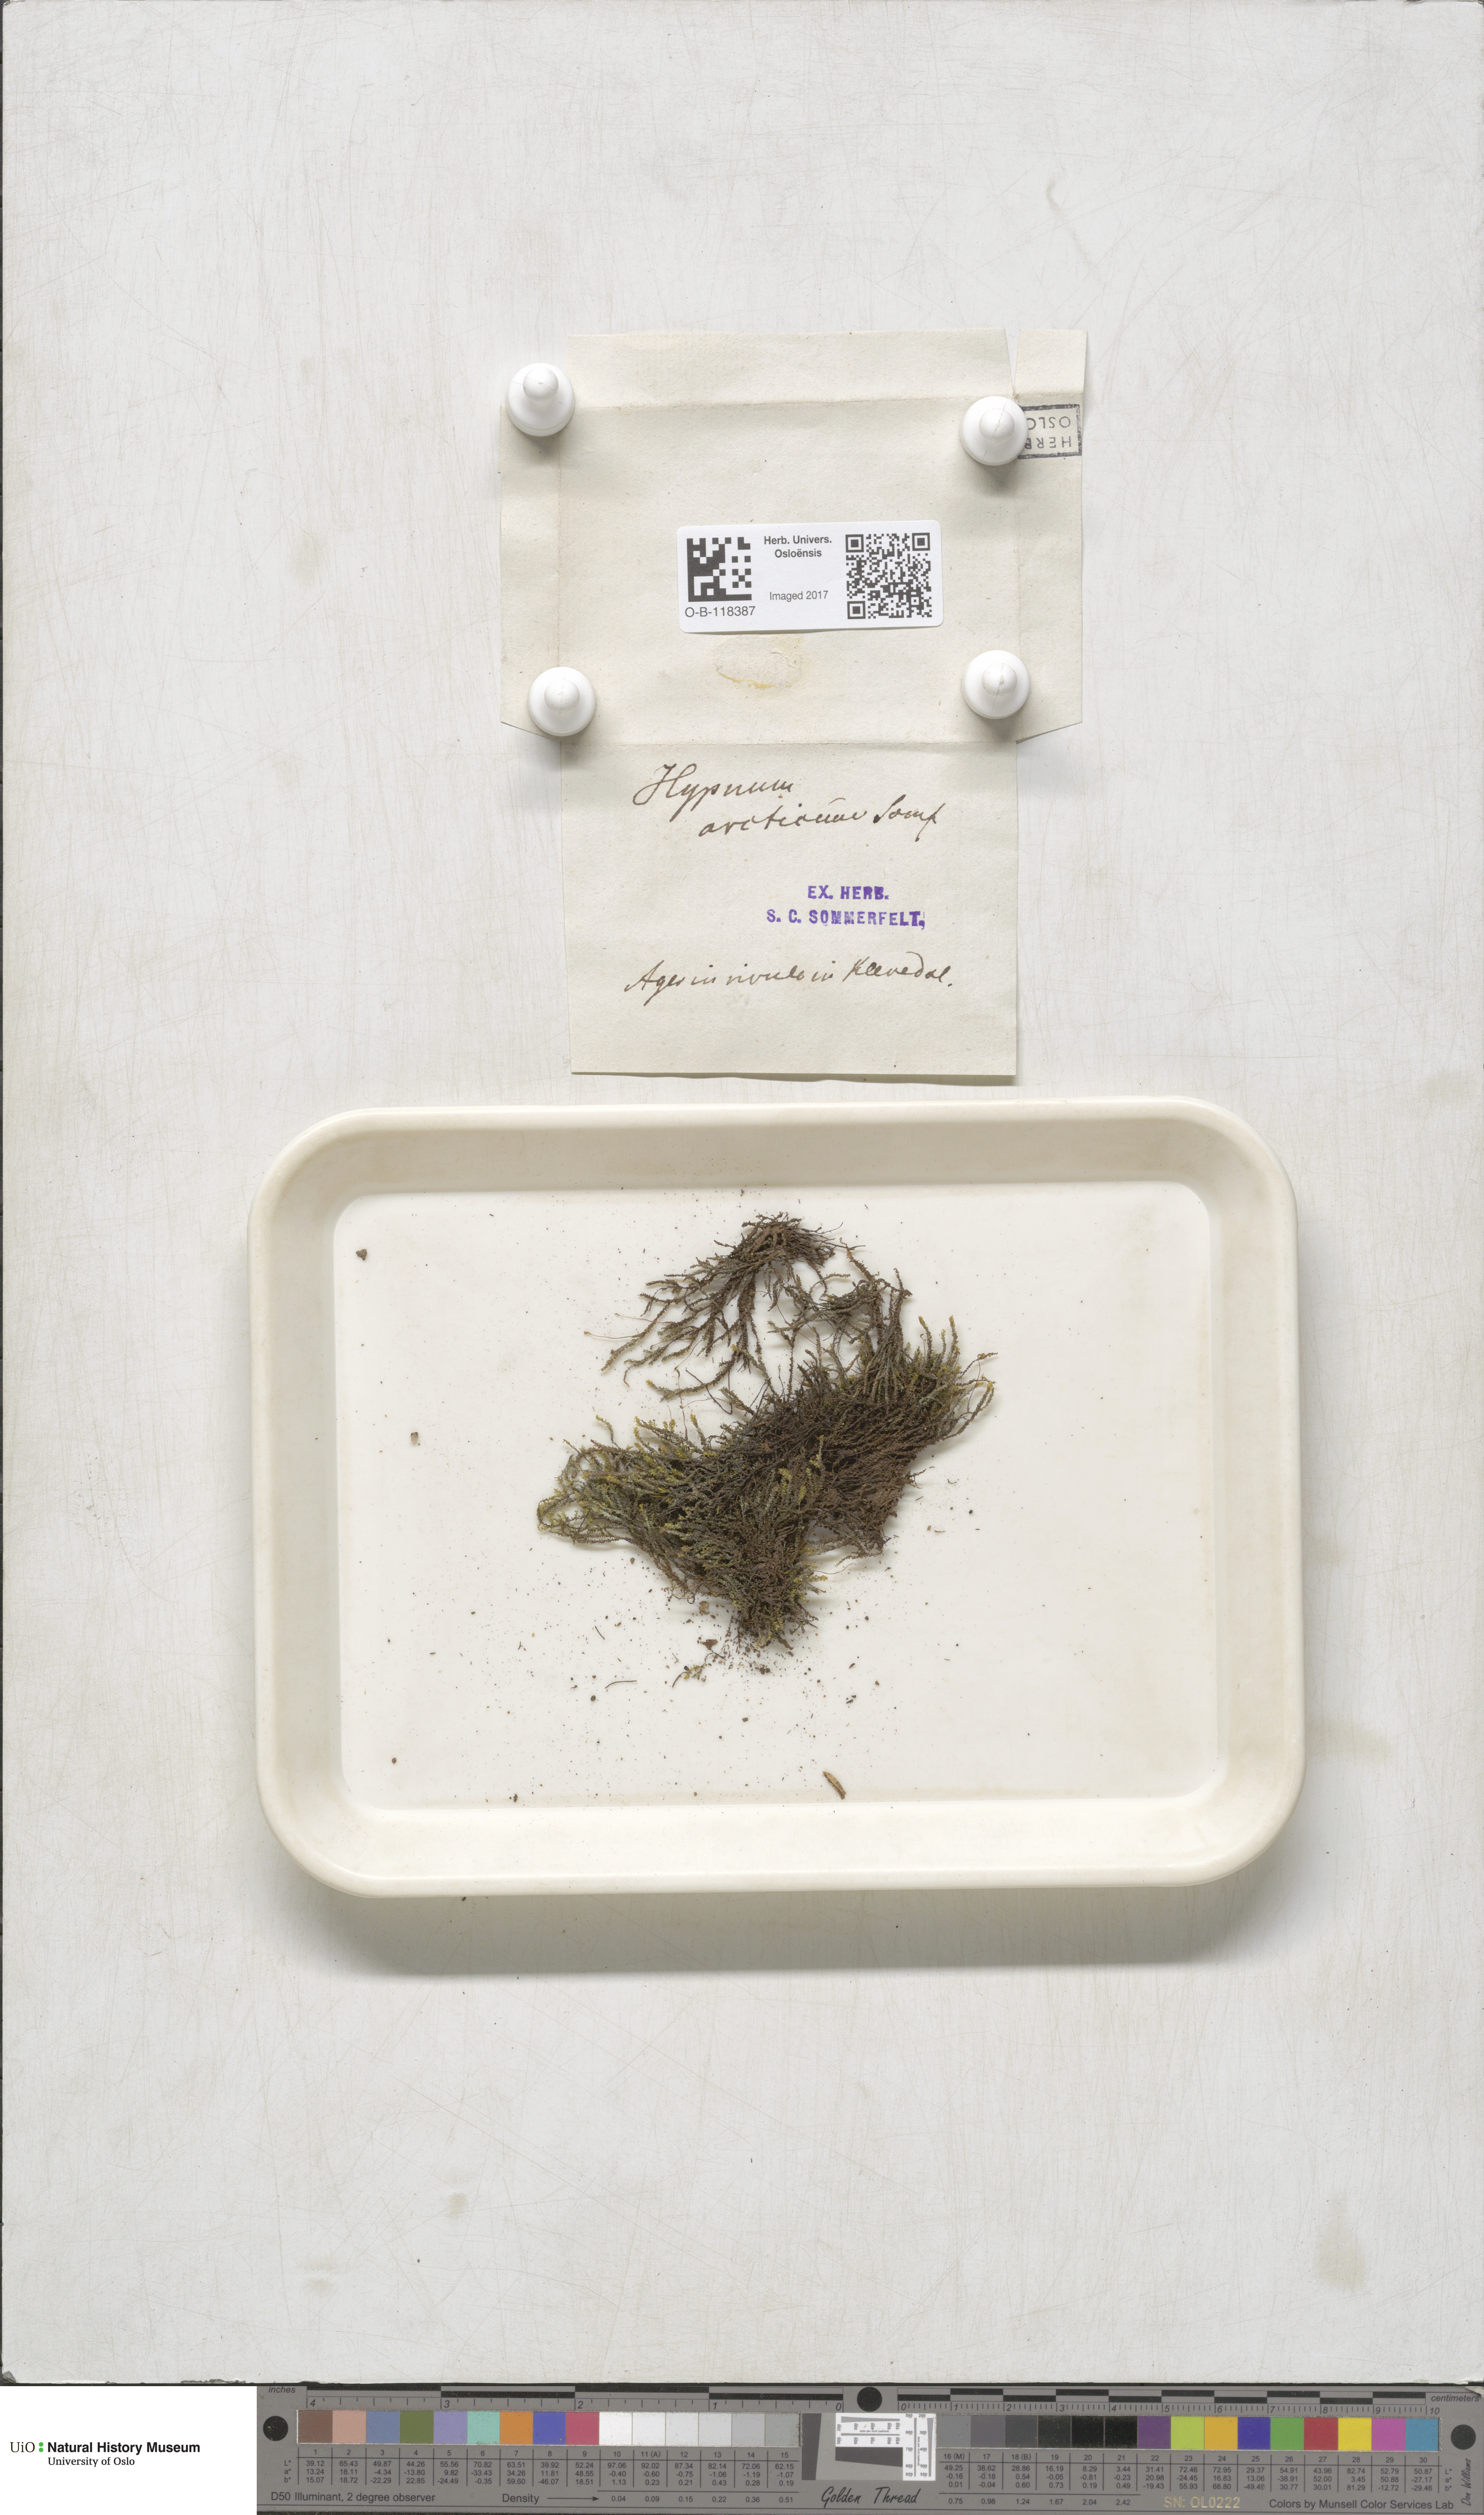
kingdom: Plantae
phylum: Bryophyta
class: Bryopsida
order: Hypnales
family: Amblystegiaceae
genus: Platyhypnum
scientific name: Platyhypnum smithii
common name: Arctic brook-moss
